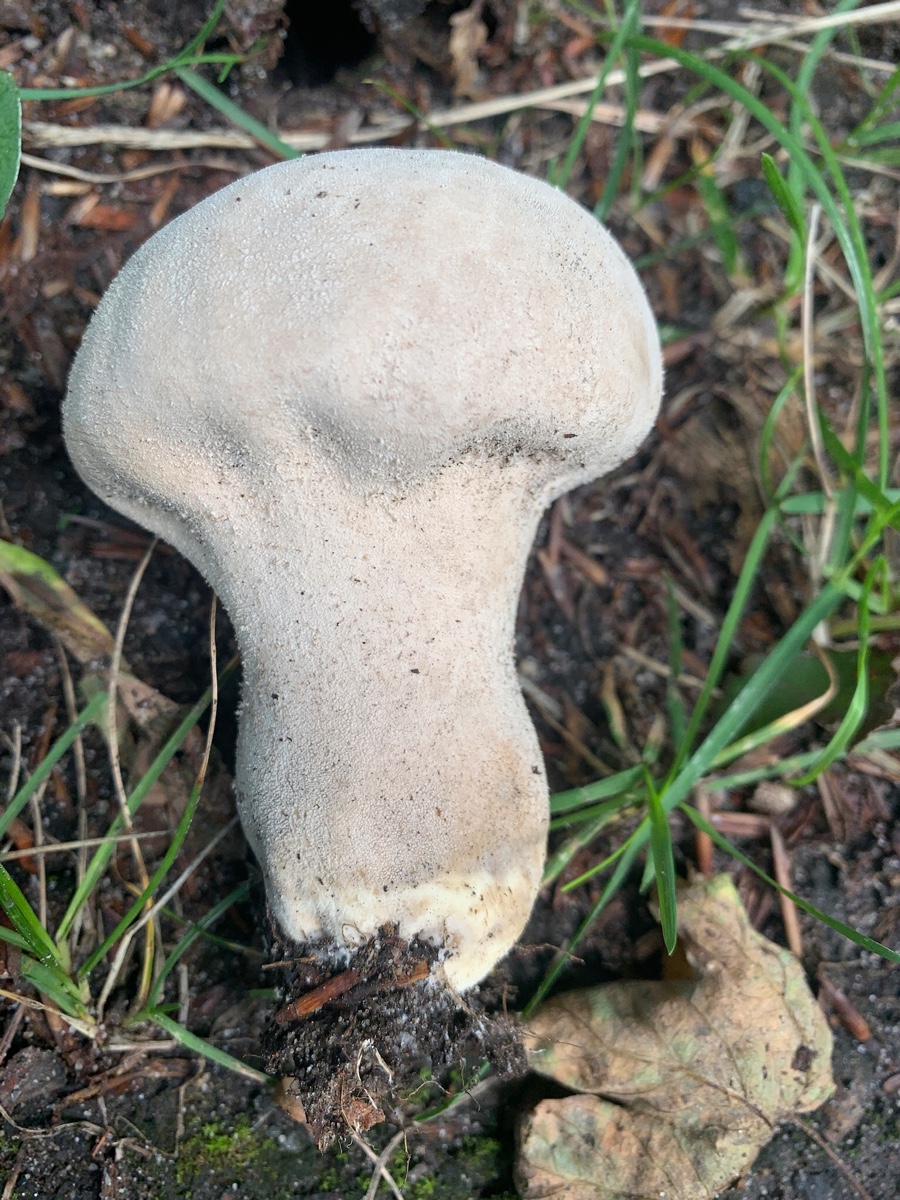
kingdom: Fungi
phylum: Basidiomycota
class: Agaricomycetes
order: Agaricales
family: Lycoperdaceae
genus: Lycoperdon
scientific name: Lycoperdon excipuliforme
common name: højstokket støvbold
